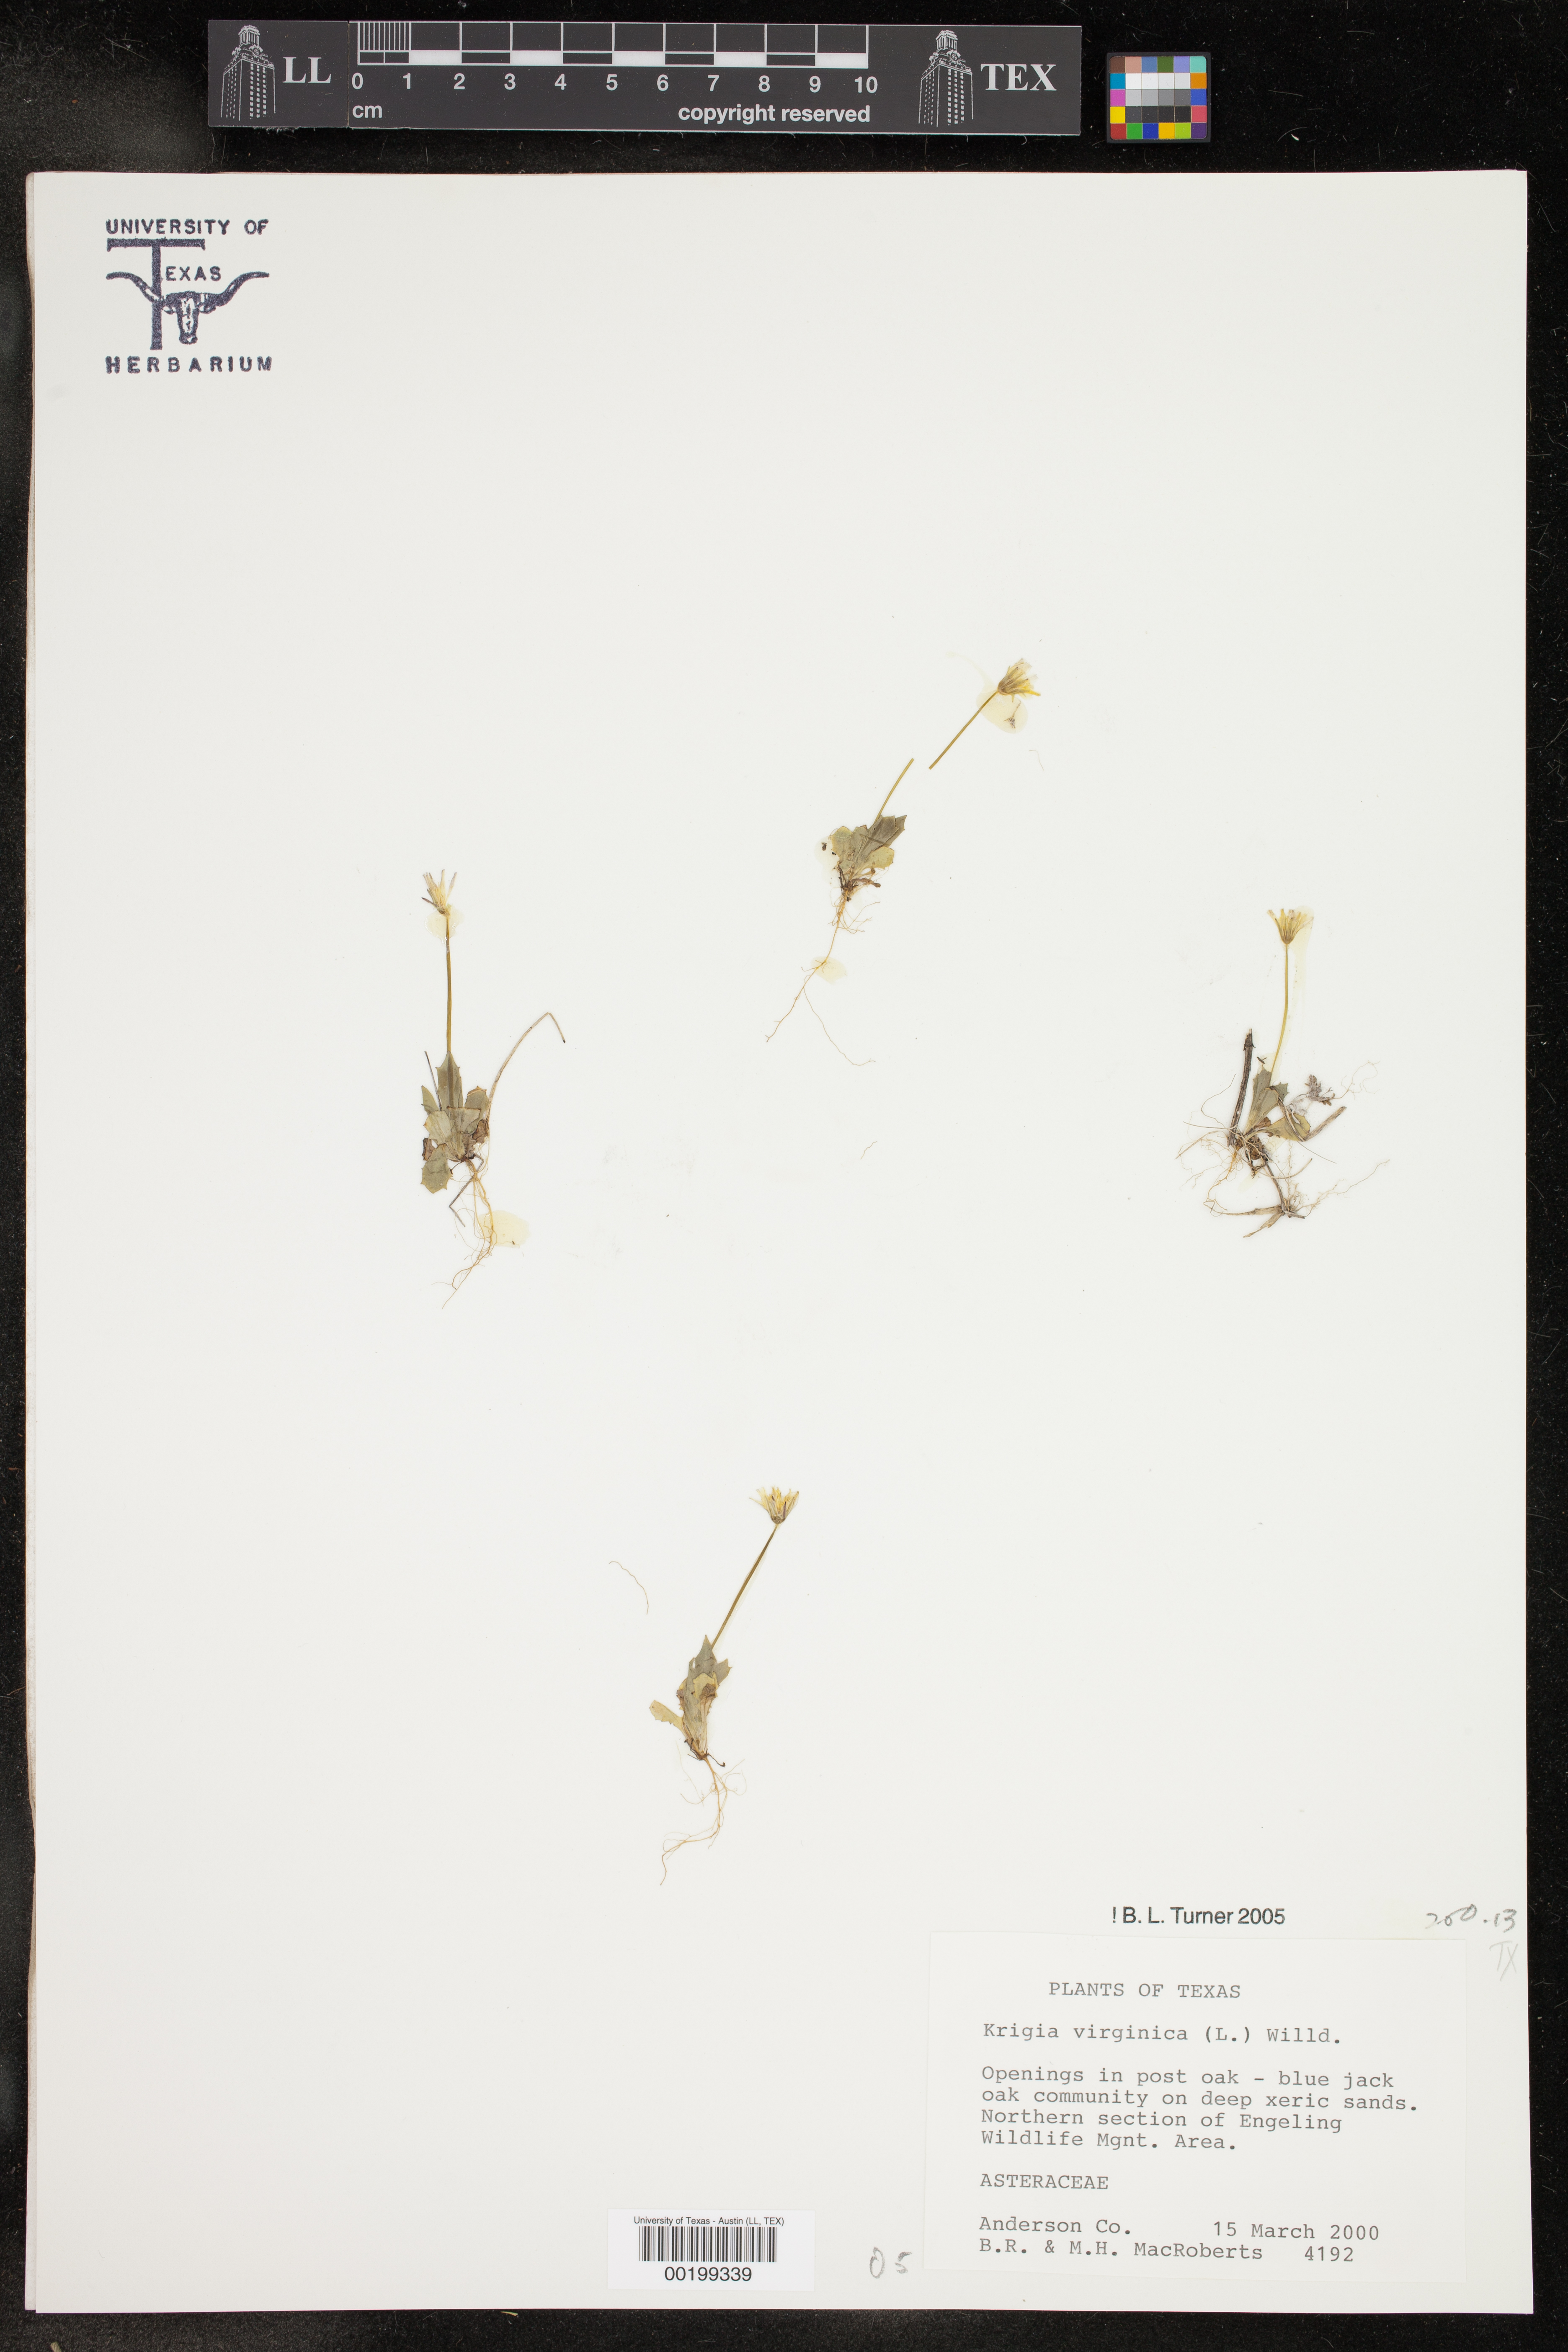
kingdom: Plantae
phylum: Tracheophyta
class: Magnoliopsida
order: Asterales
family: Asteraceae
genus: Krigia
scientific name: Krigia virginica
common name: Virginia dwarf-dandelion
